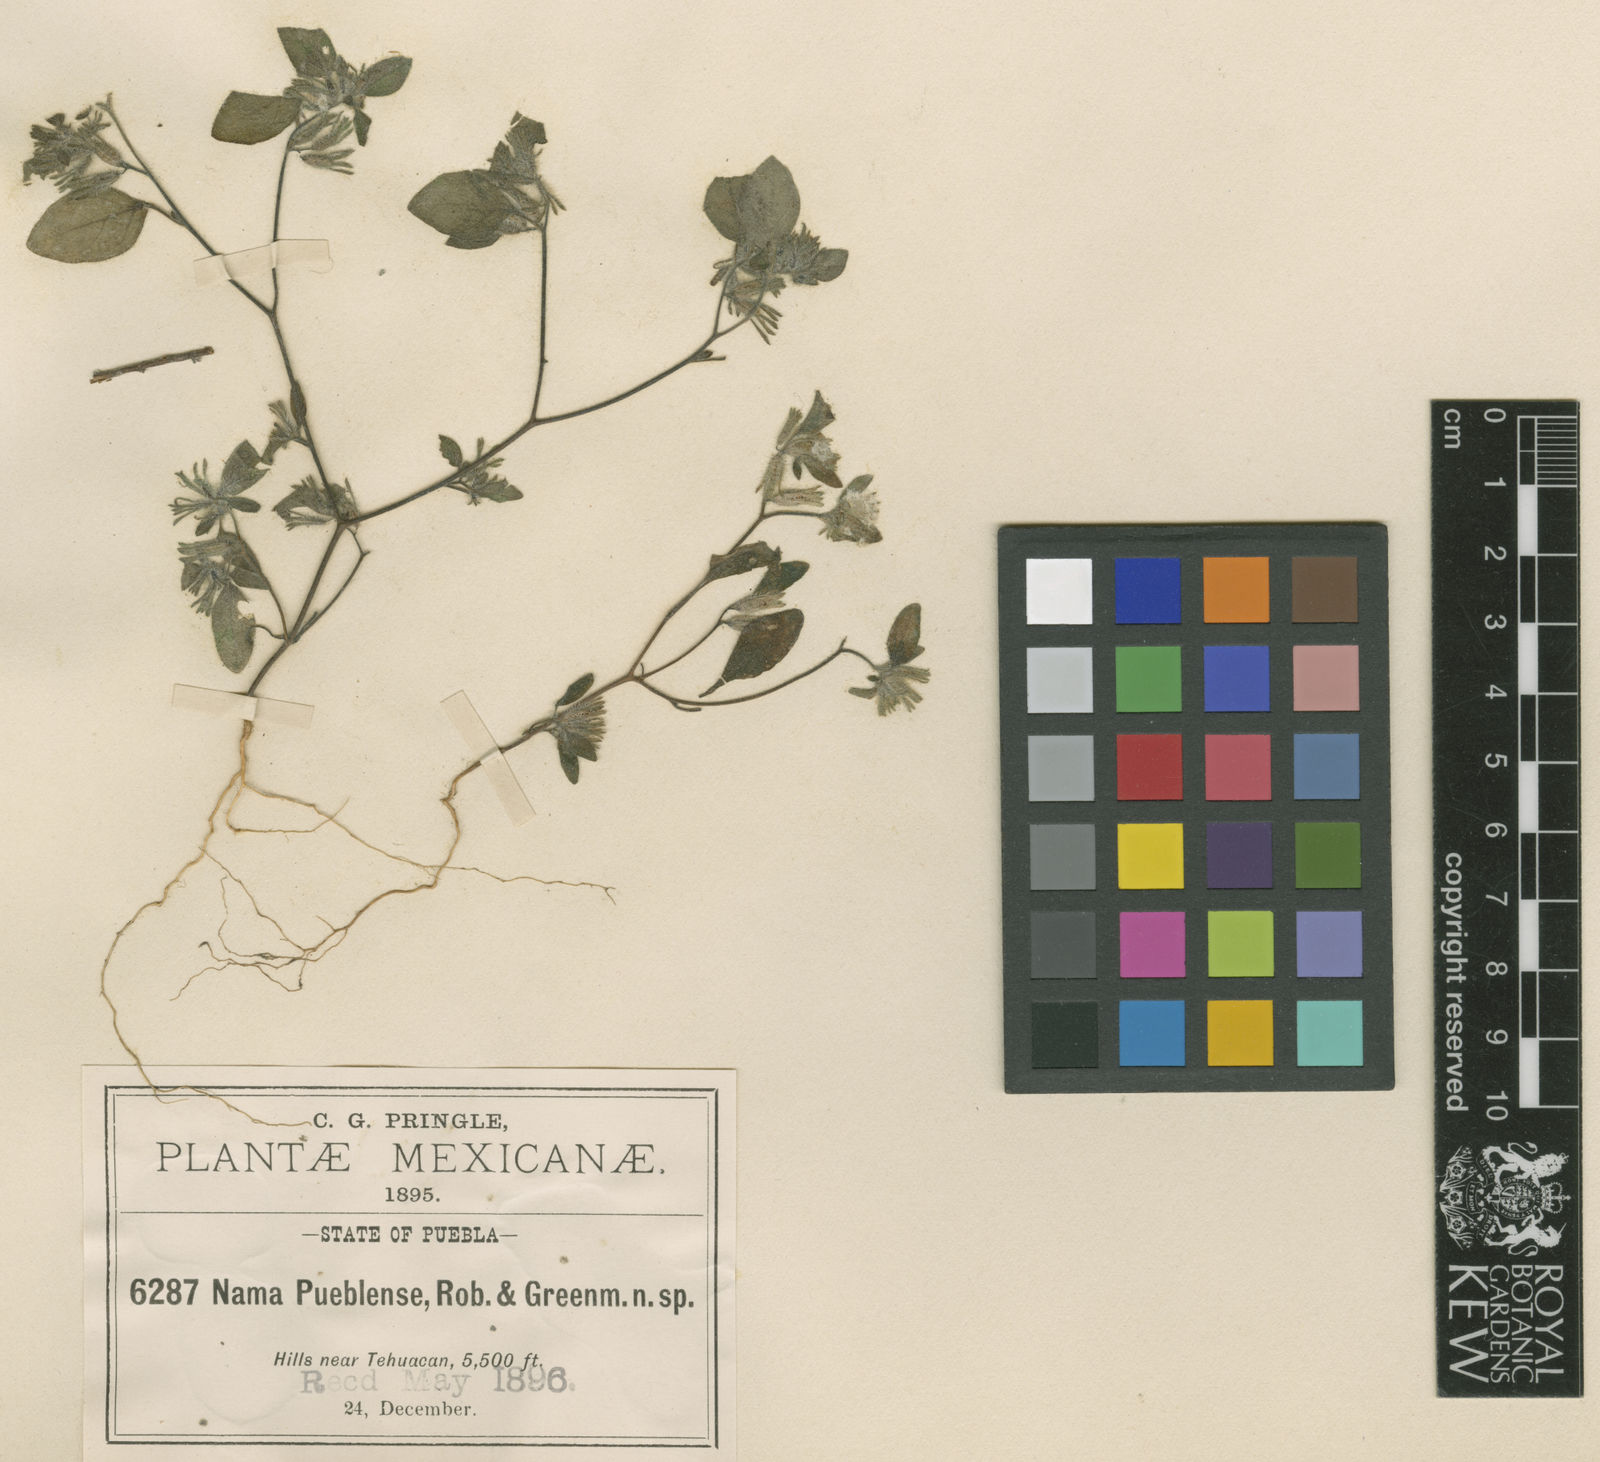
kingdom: Plantae
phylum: Tracheophyta
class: Magnoliopsida
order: Boraginales
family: Namaceae
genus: Nama
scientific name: Nama
